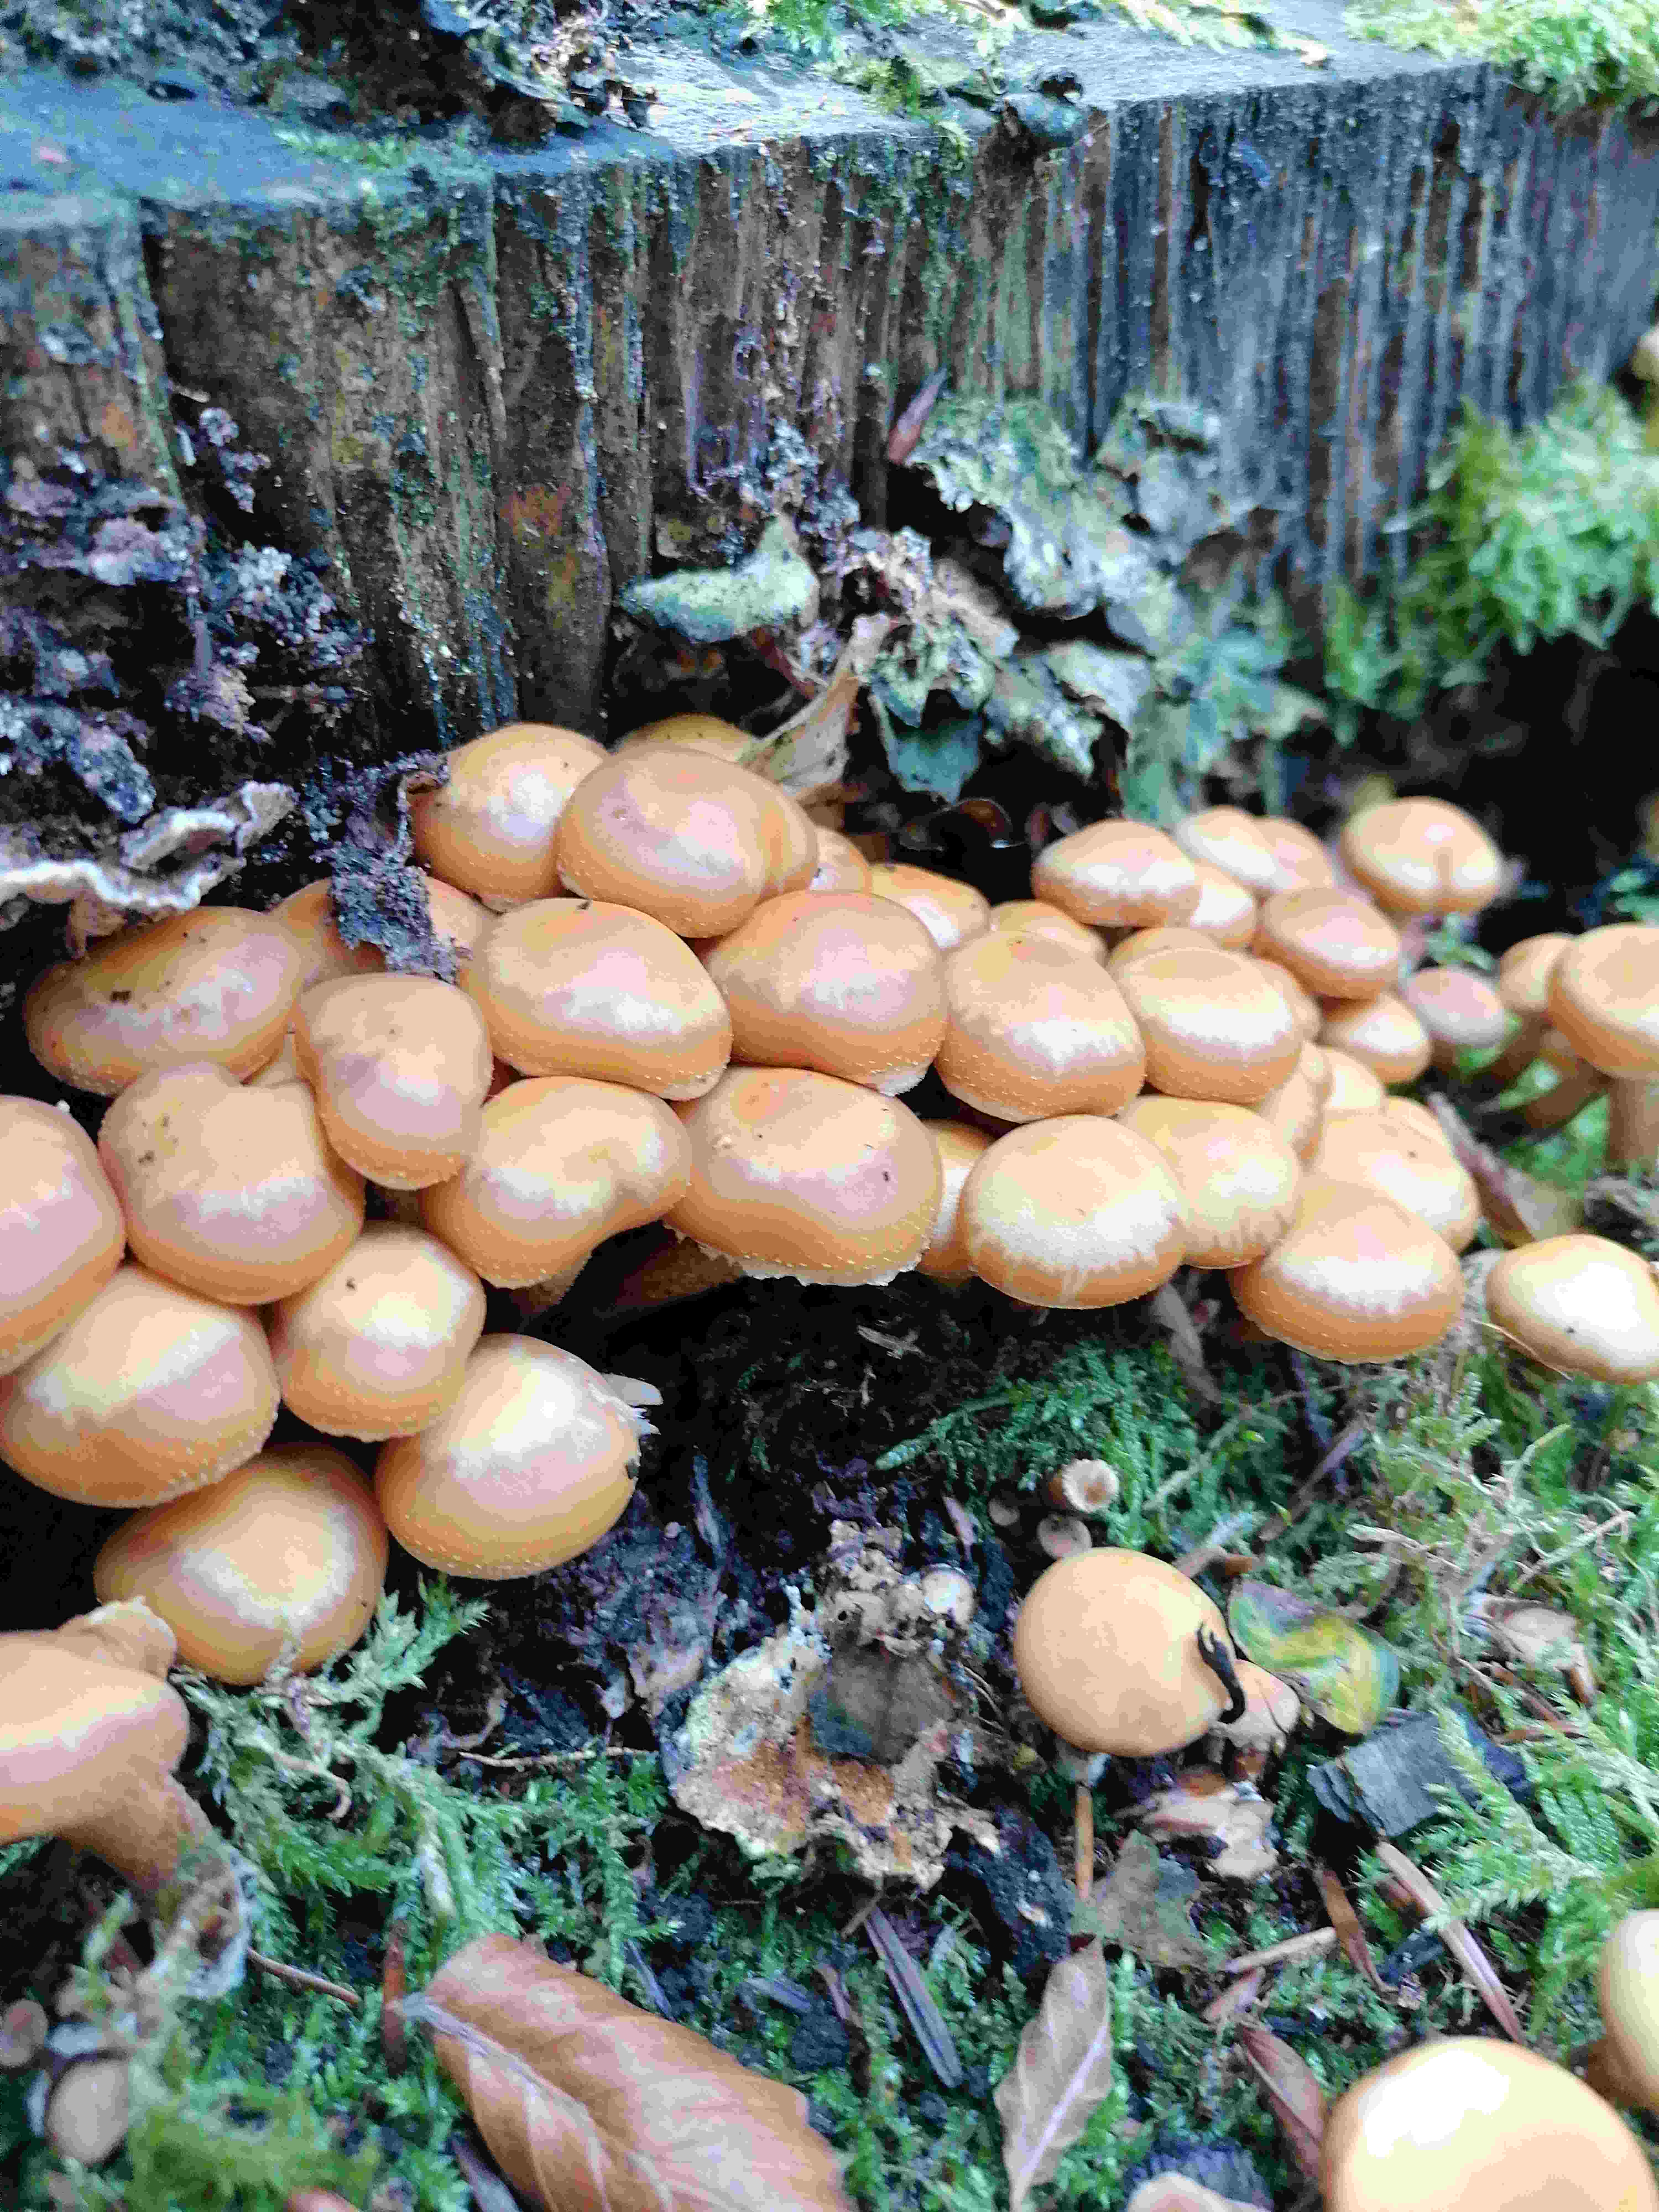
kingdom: Fungi
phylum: Basidiomycota
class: Agaricomycetes
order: Agaricales
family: Strophariaceae
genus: Kuehneromyces
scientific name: Kuehneromyces mutabilis
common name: foranderlig skælhat
